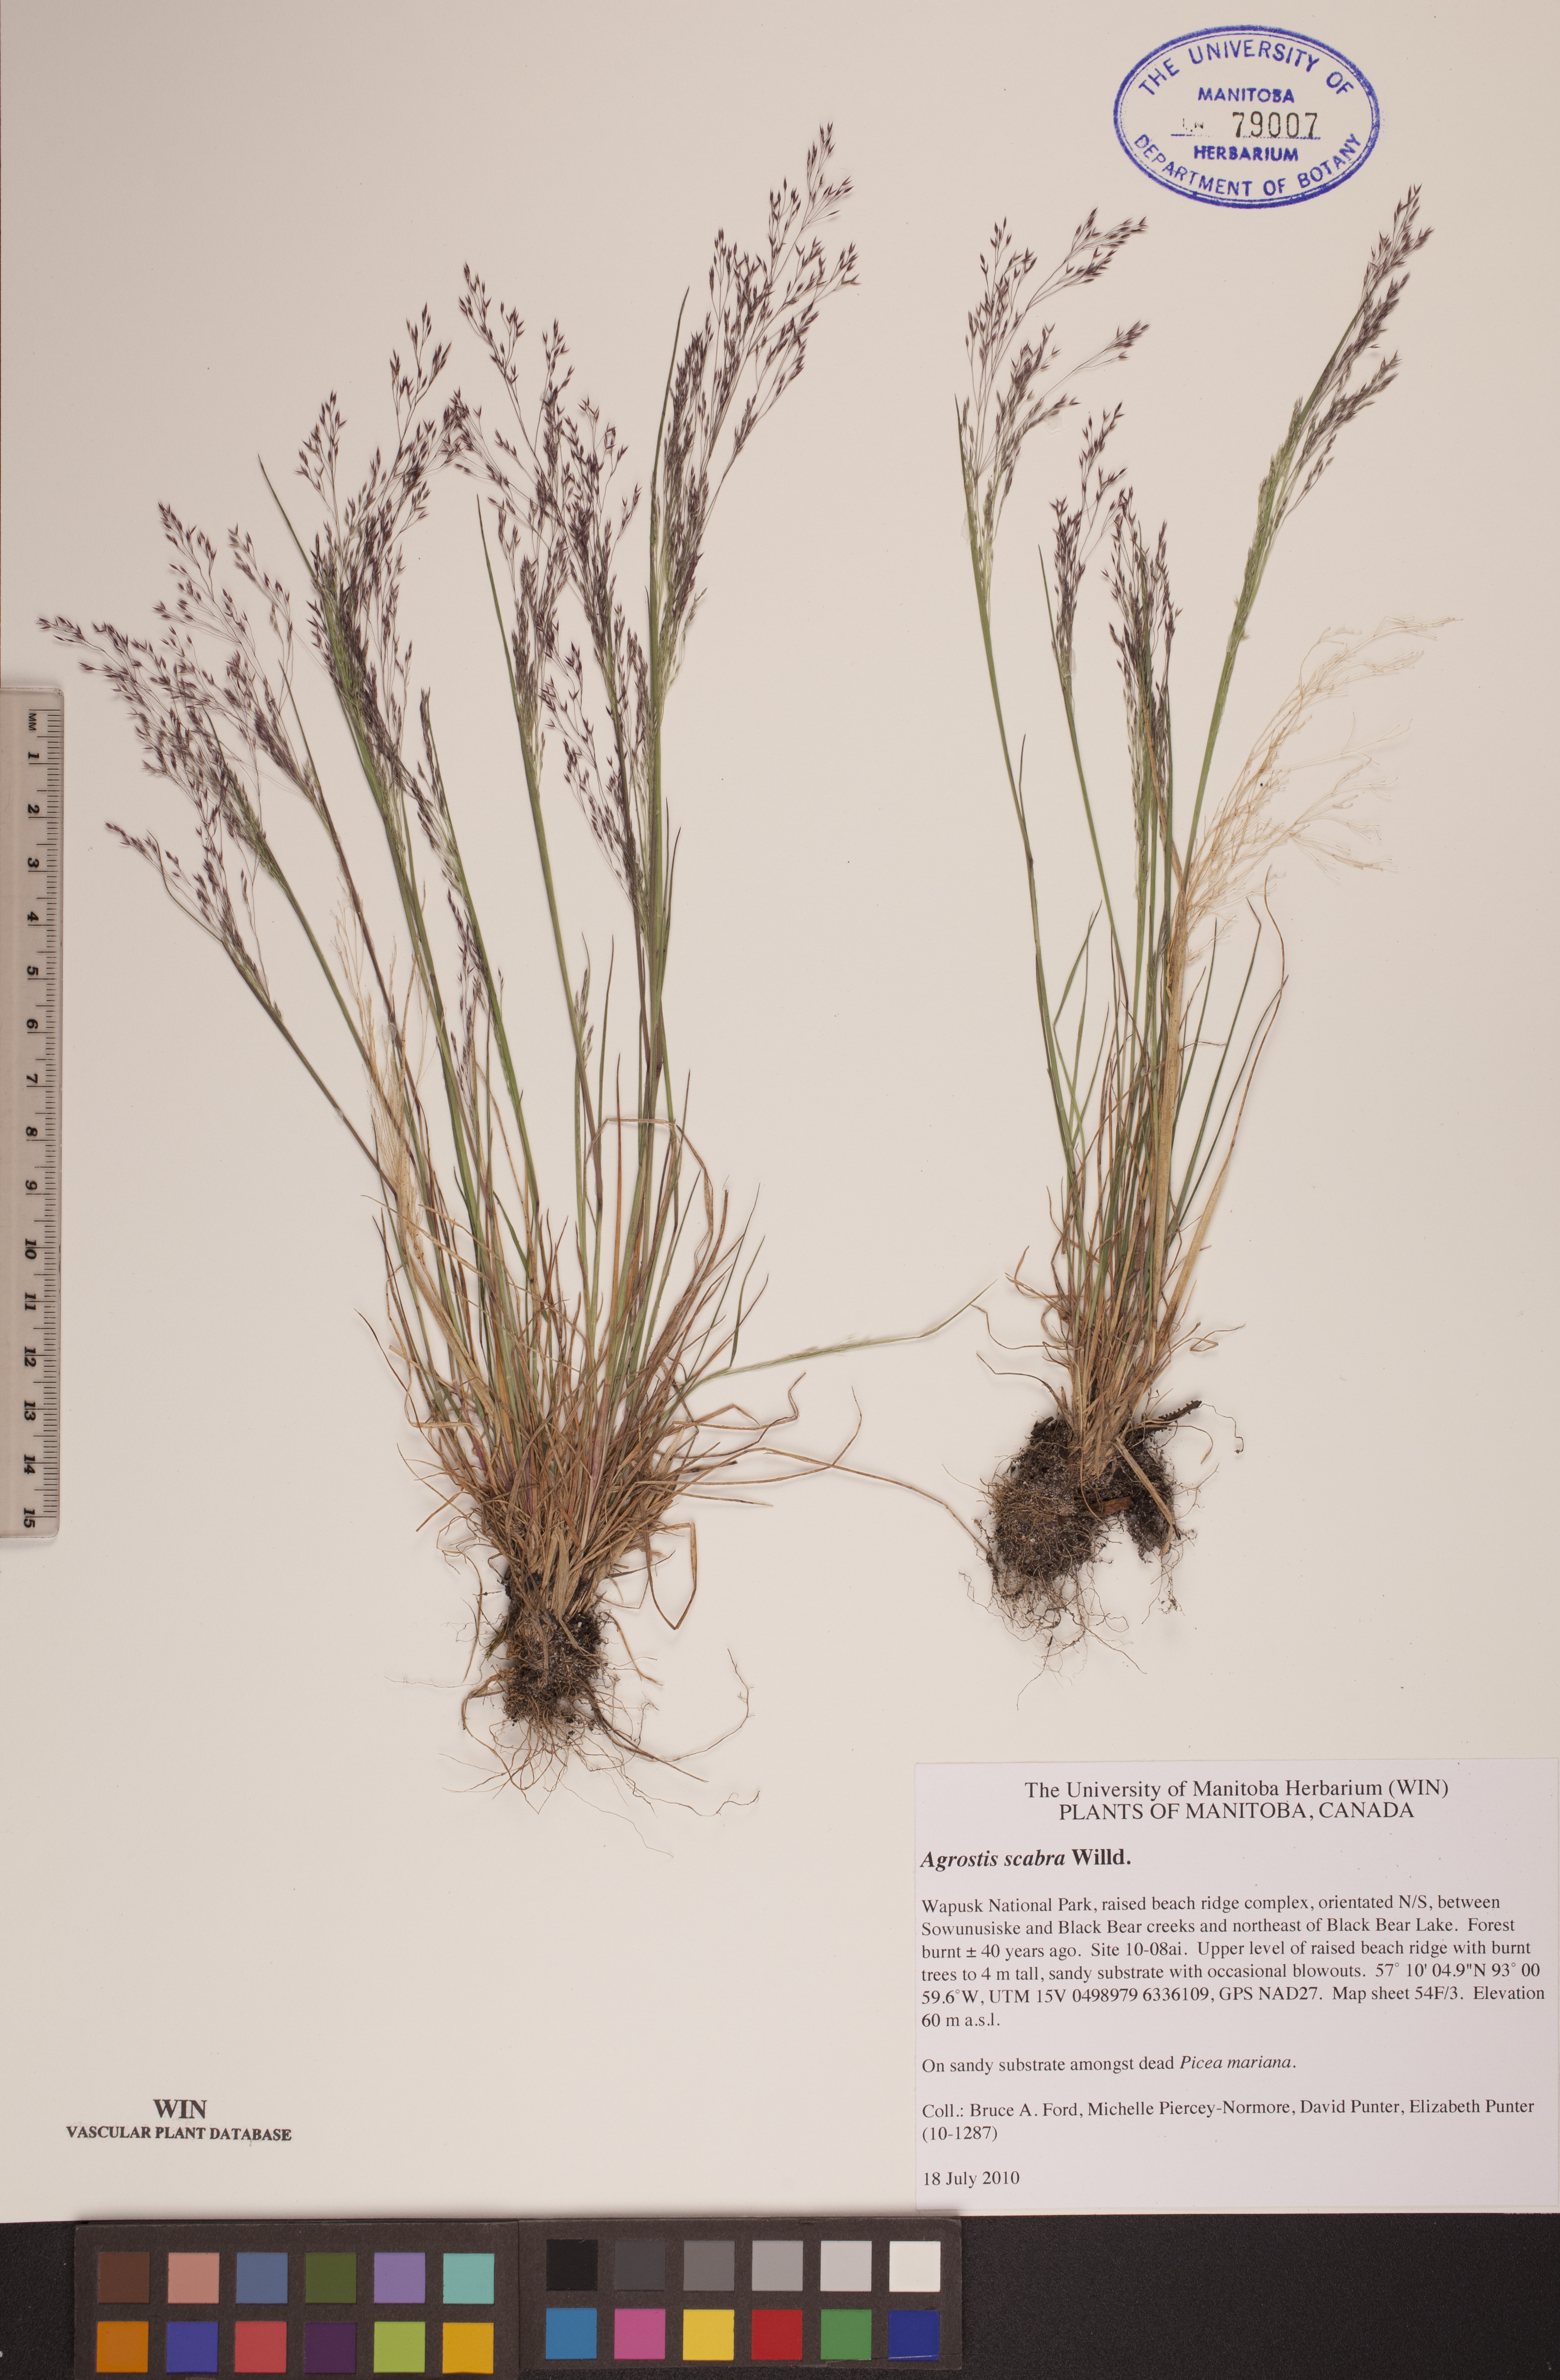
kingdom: Plantae
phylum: Tracheophyta
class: Liliopsida
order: Poales
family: Poaceae
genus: Agrostis
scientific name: Agrostis scabra
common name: Rough bent
